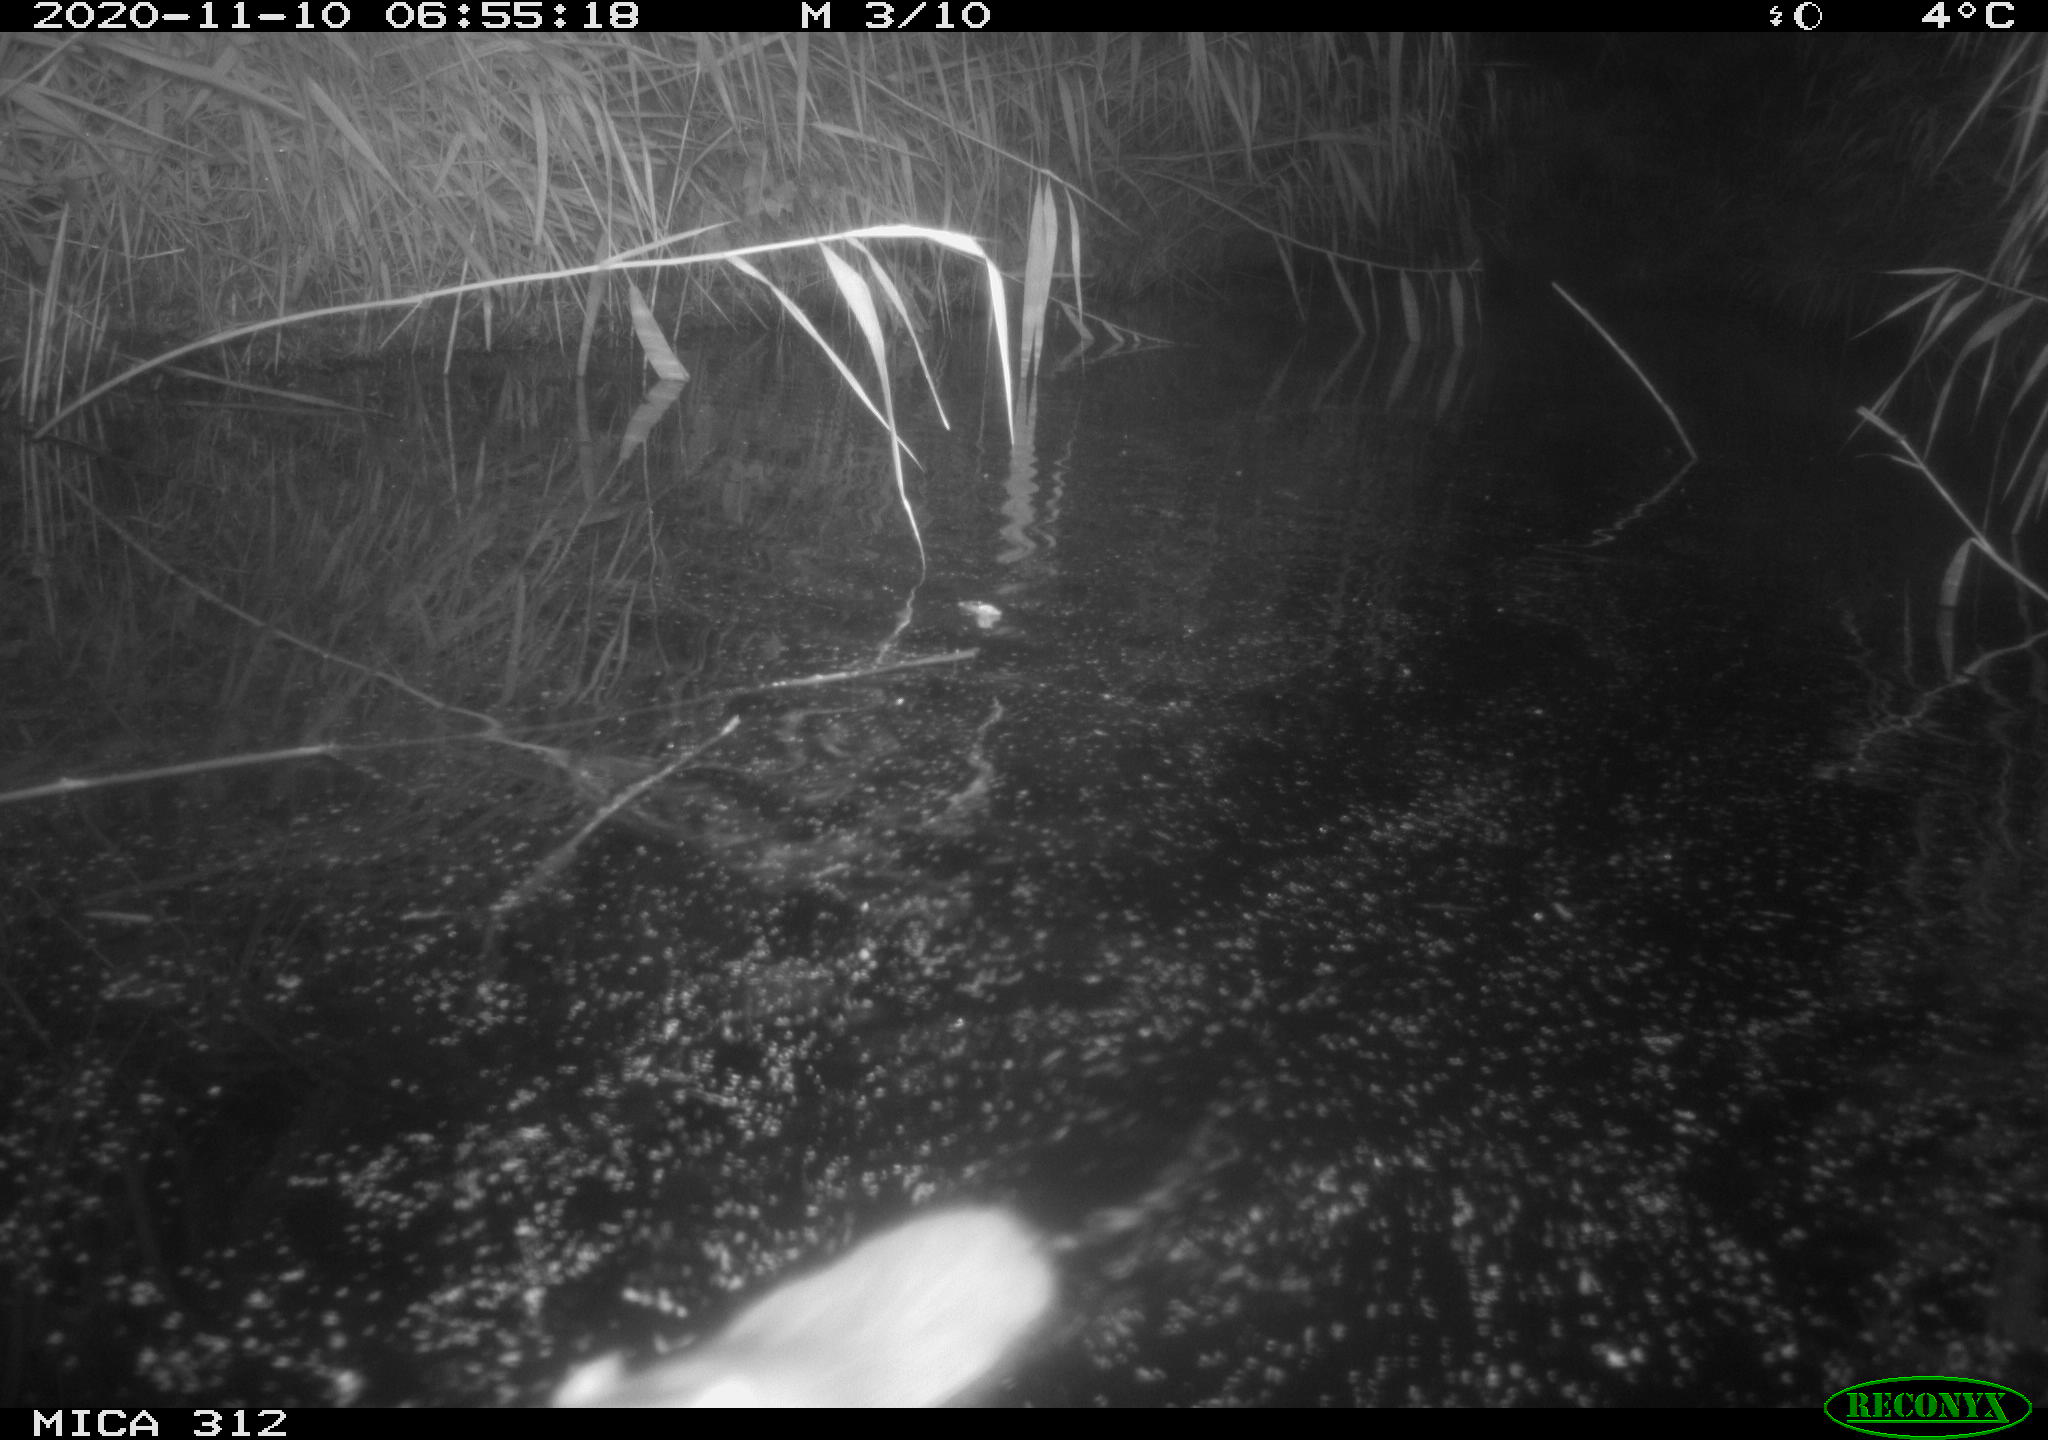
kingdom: Animalia
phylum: Chordata
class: Mammalia
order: Rodentia
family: Muridae
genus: Rattus
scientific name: Rattus norvegicus
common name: Brown rat
